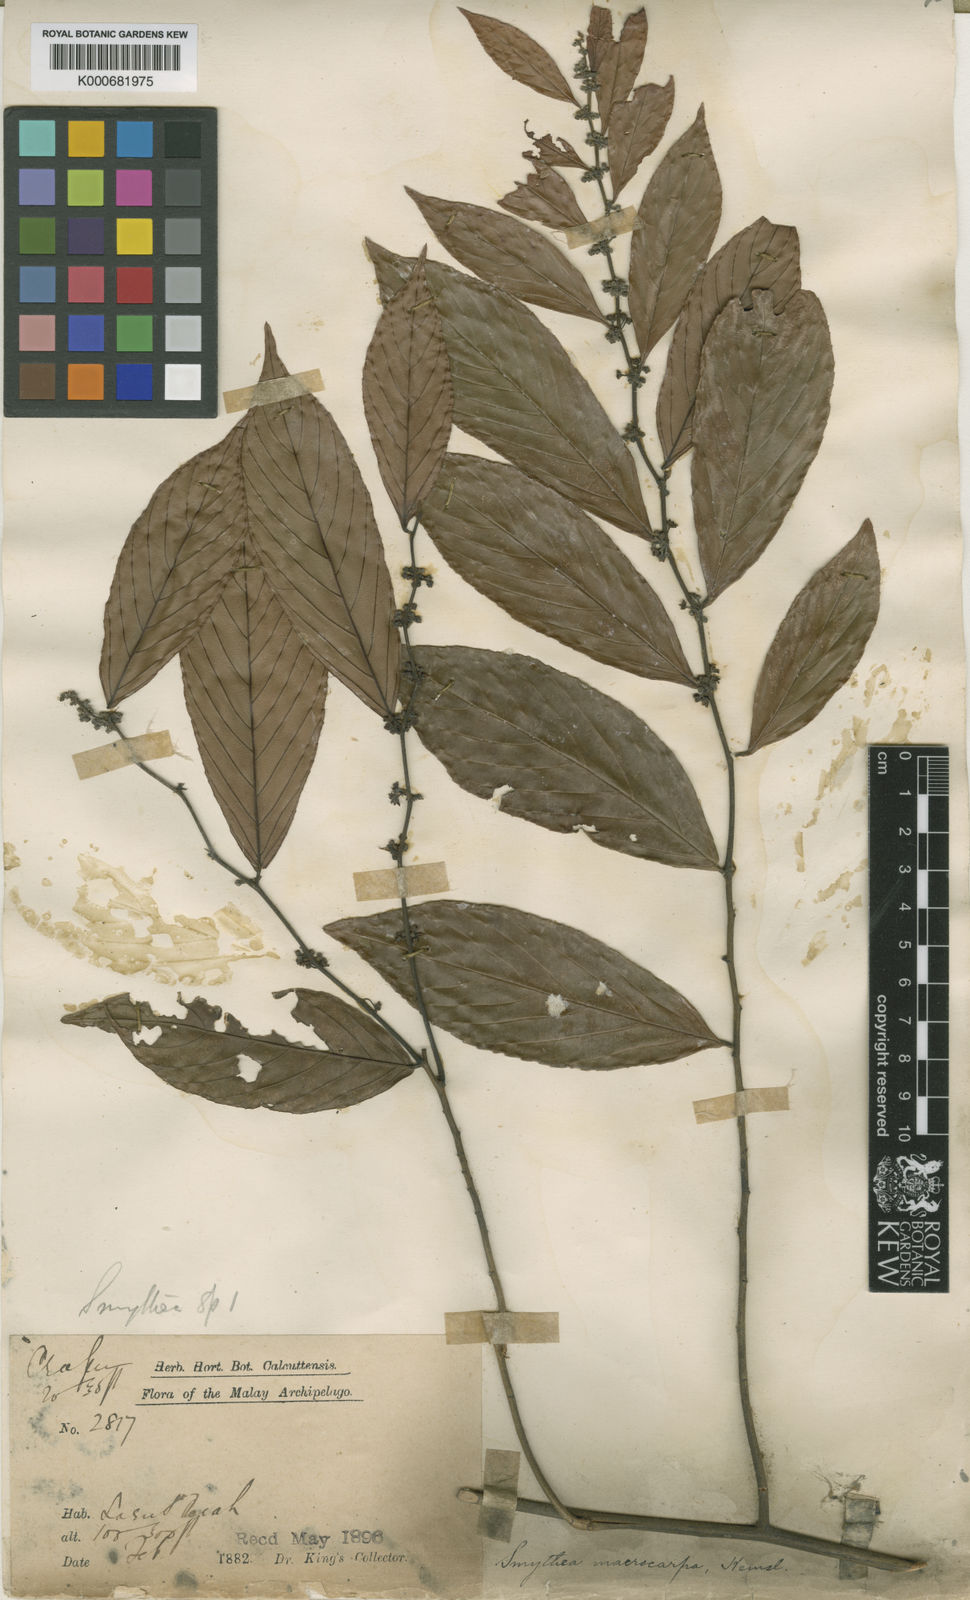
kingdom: Plantae
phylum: Tracheophyta
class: Magnoliopsida
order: Rosales
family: Rhamnaceae
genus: Smythea
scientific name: Smythea macrocarpa
